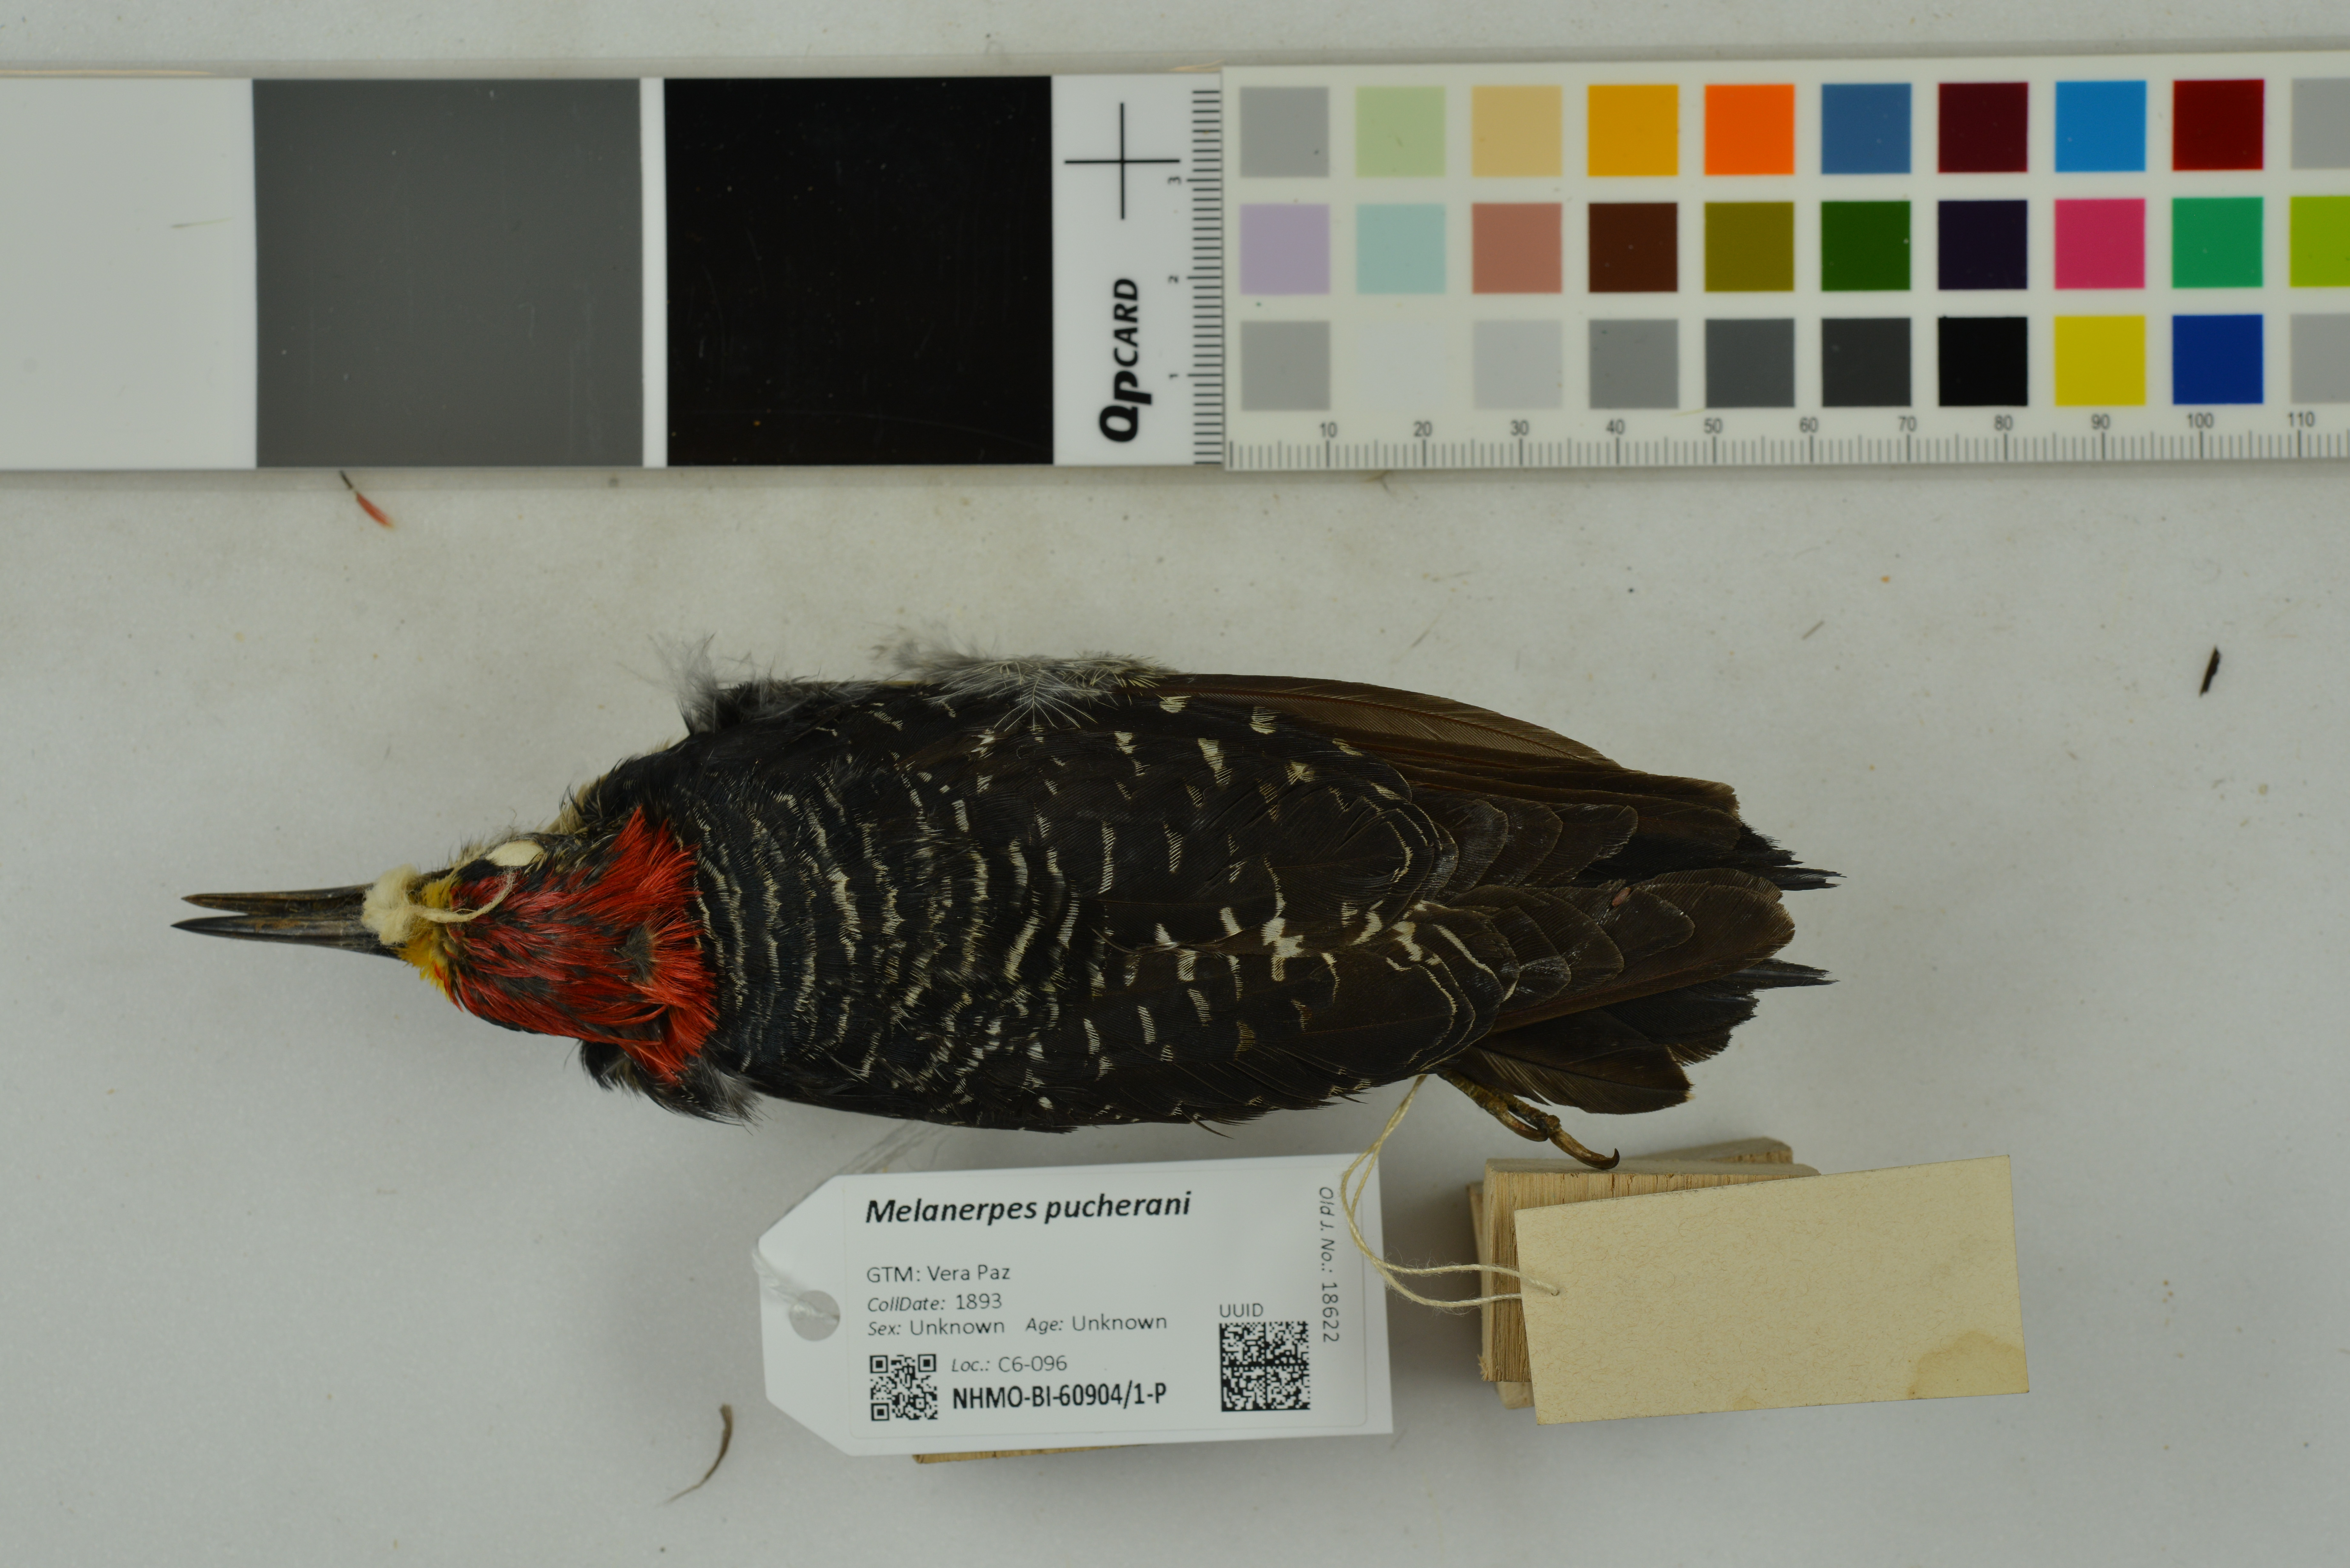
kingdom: Animalia
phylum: Chordata
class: Aves
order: Piciformes
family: Picidae
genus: Melanerpes
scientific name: Melanerpes pucherani
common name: Black-cheeked woodpecker
